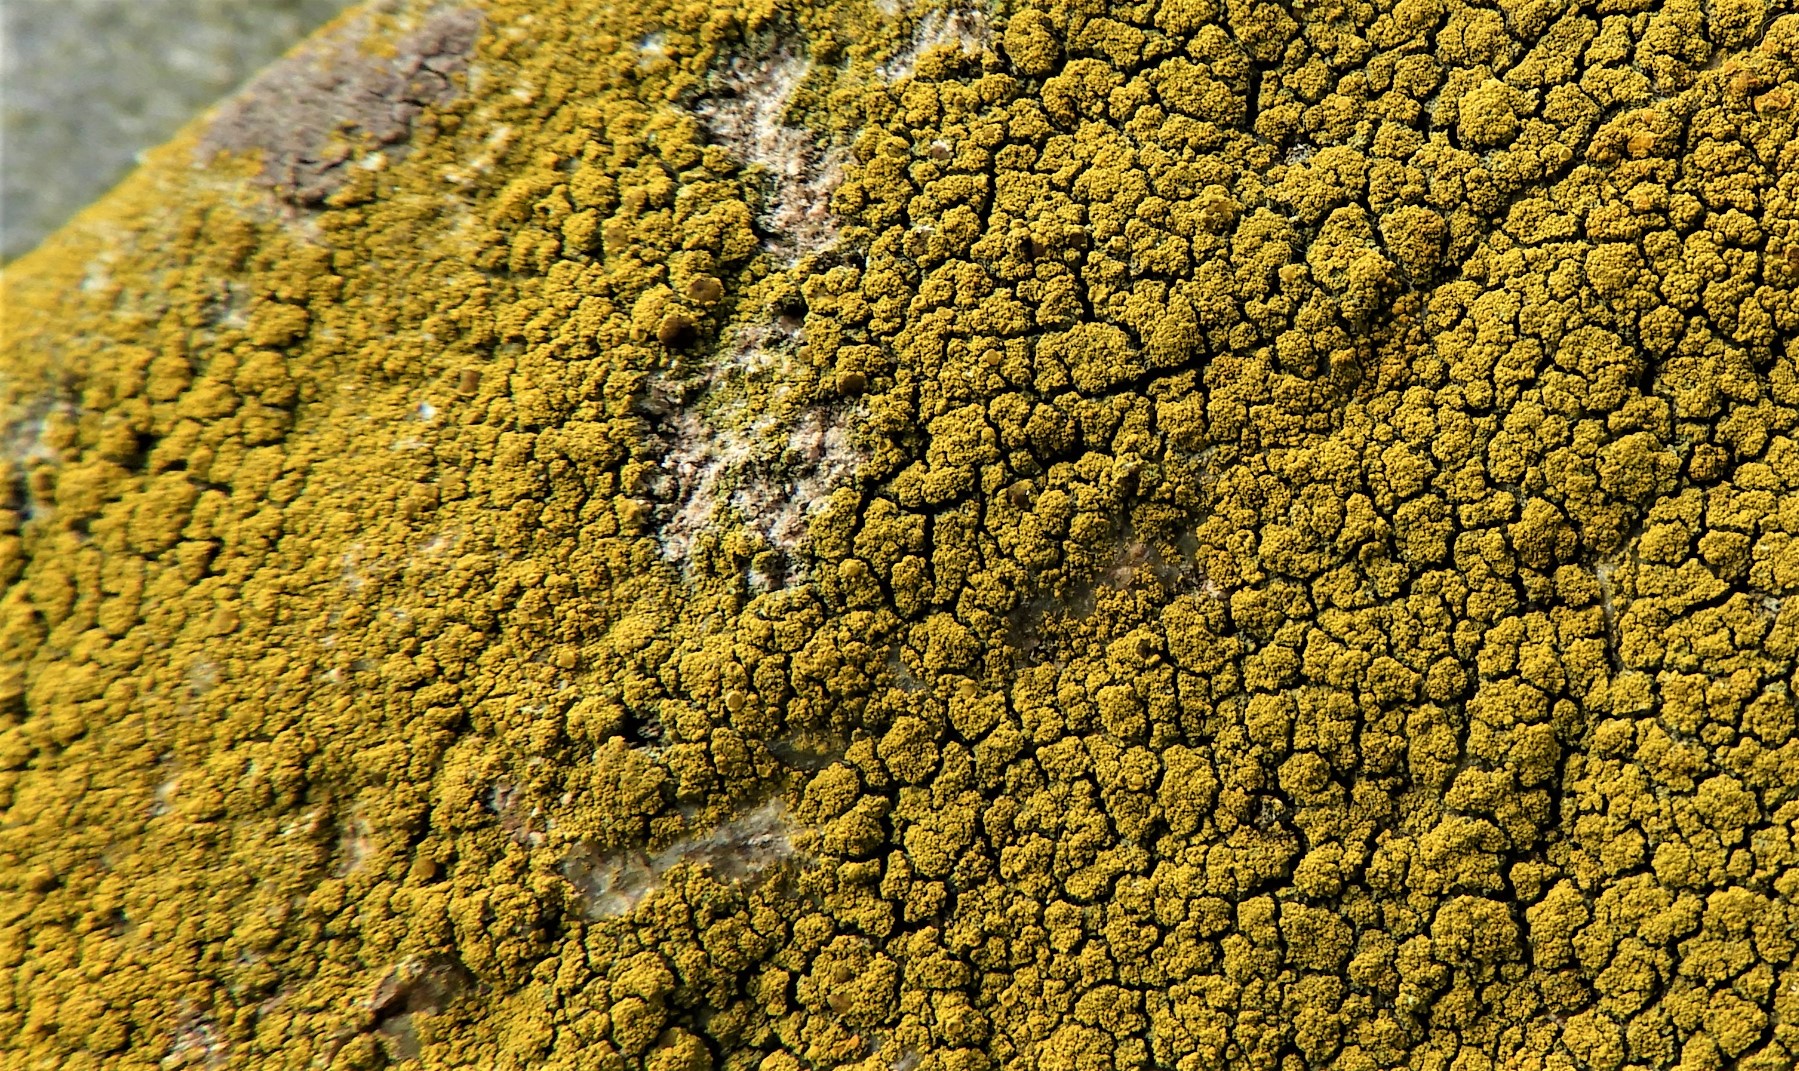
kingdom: Fungi
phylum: Ascomycota
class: Candelariomycetes
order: Candelariales
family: Candelariaceae
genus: Candelariella
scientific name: Candelariella vitellina
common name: almindelig æggeblommelav
